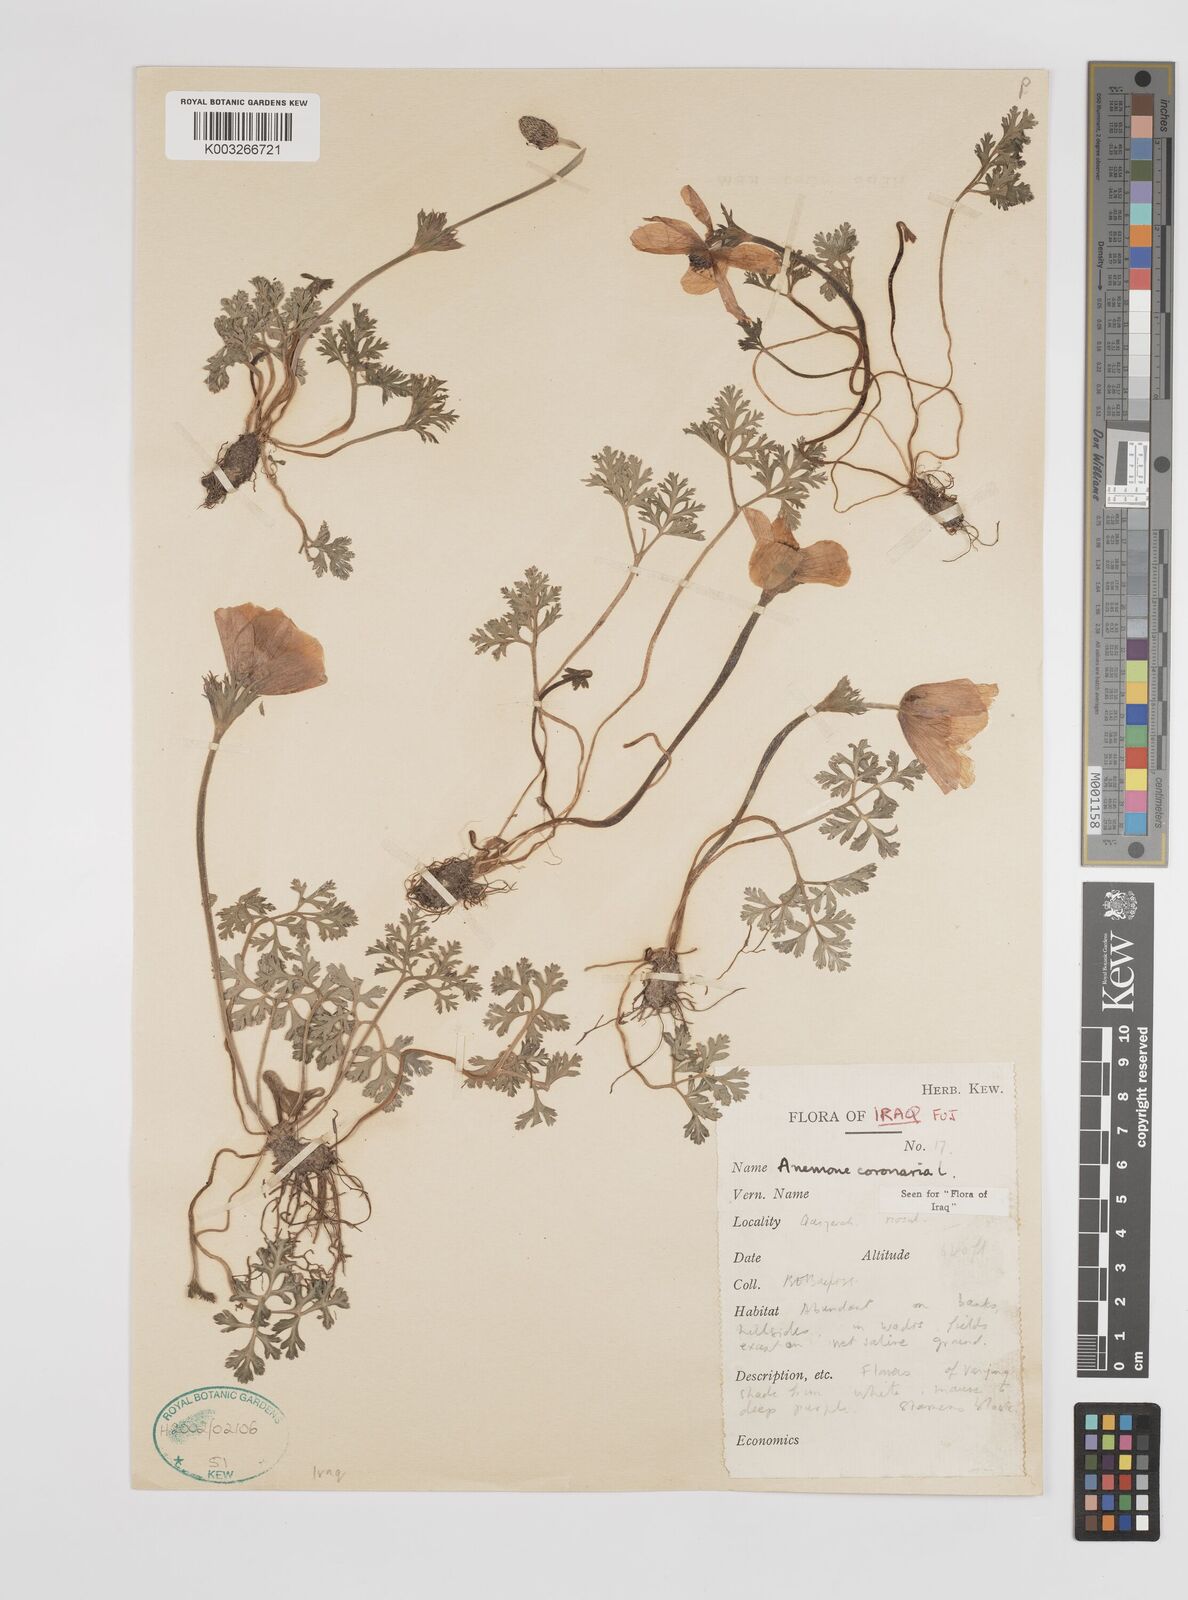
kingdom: Plantae
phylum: Tracheophyta
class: Magnoliopsida
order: Ranunculales
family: Ranunculaceae
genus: Anemone
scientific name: Anemone coronaria
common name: Poppy anemone
